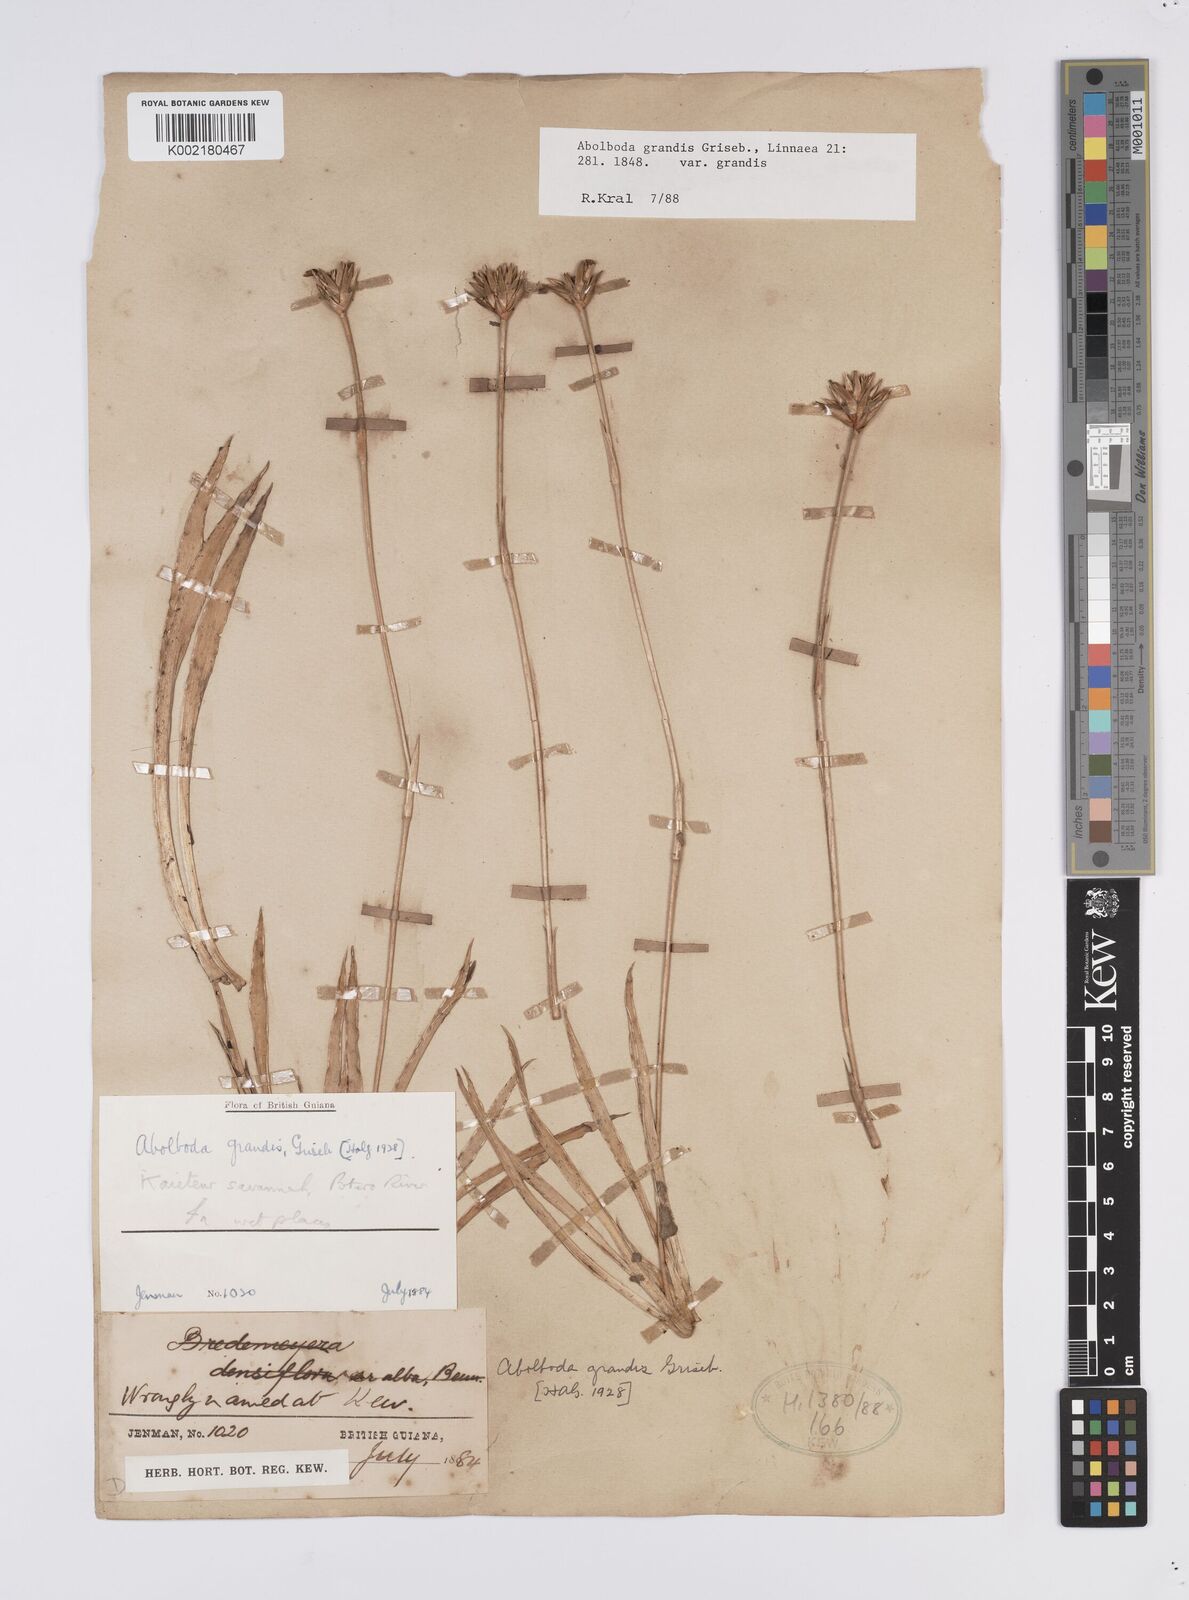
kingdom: Plantae
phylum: Tracheophyta
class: Liliopsida
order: Poales
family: Xyridaceae
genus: Abolboda
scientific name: Abolboda grandis
